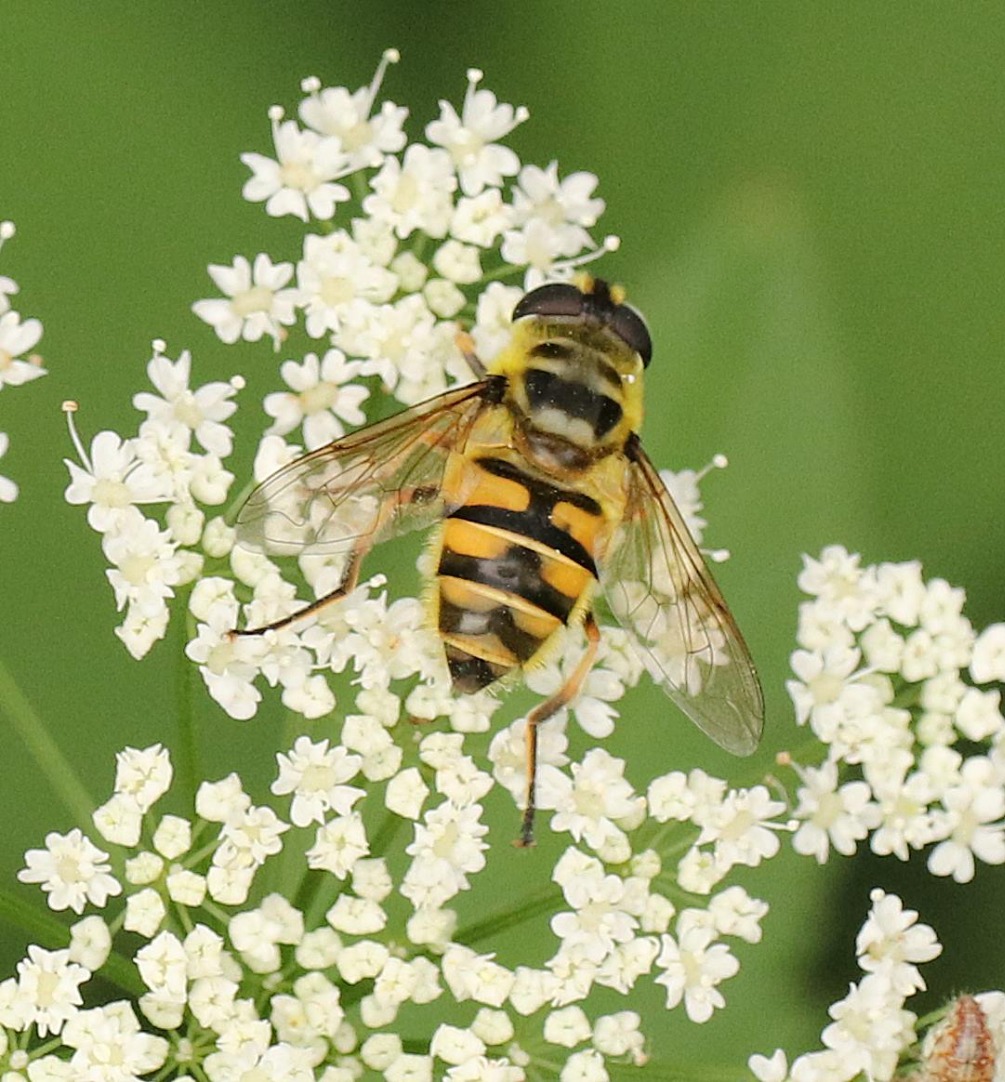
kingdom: Animalia
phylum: Arthropoda
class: Insecta
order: Diptera
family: Syrphidae
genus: Myathropa
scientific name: Myathropa florea
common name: Dødningehoved-svirreflue
